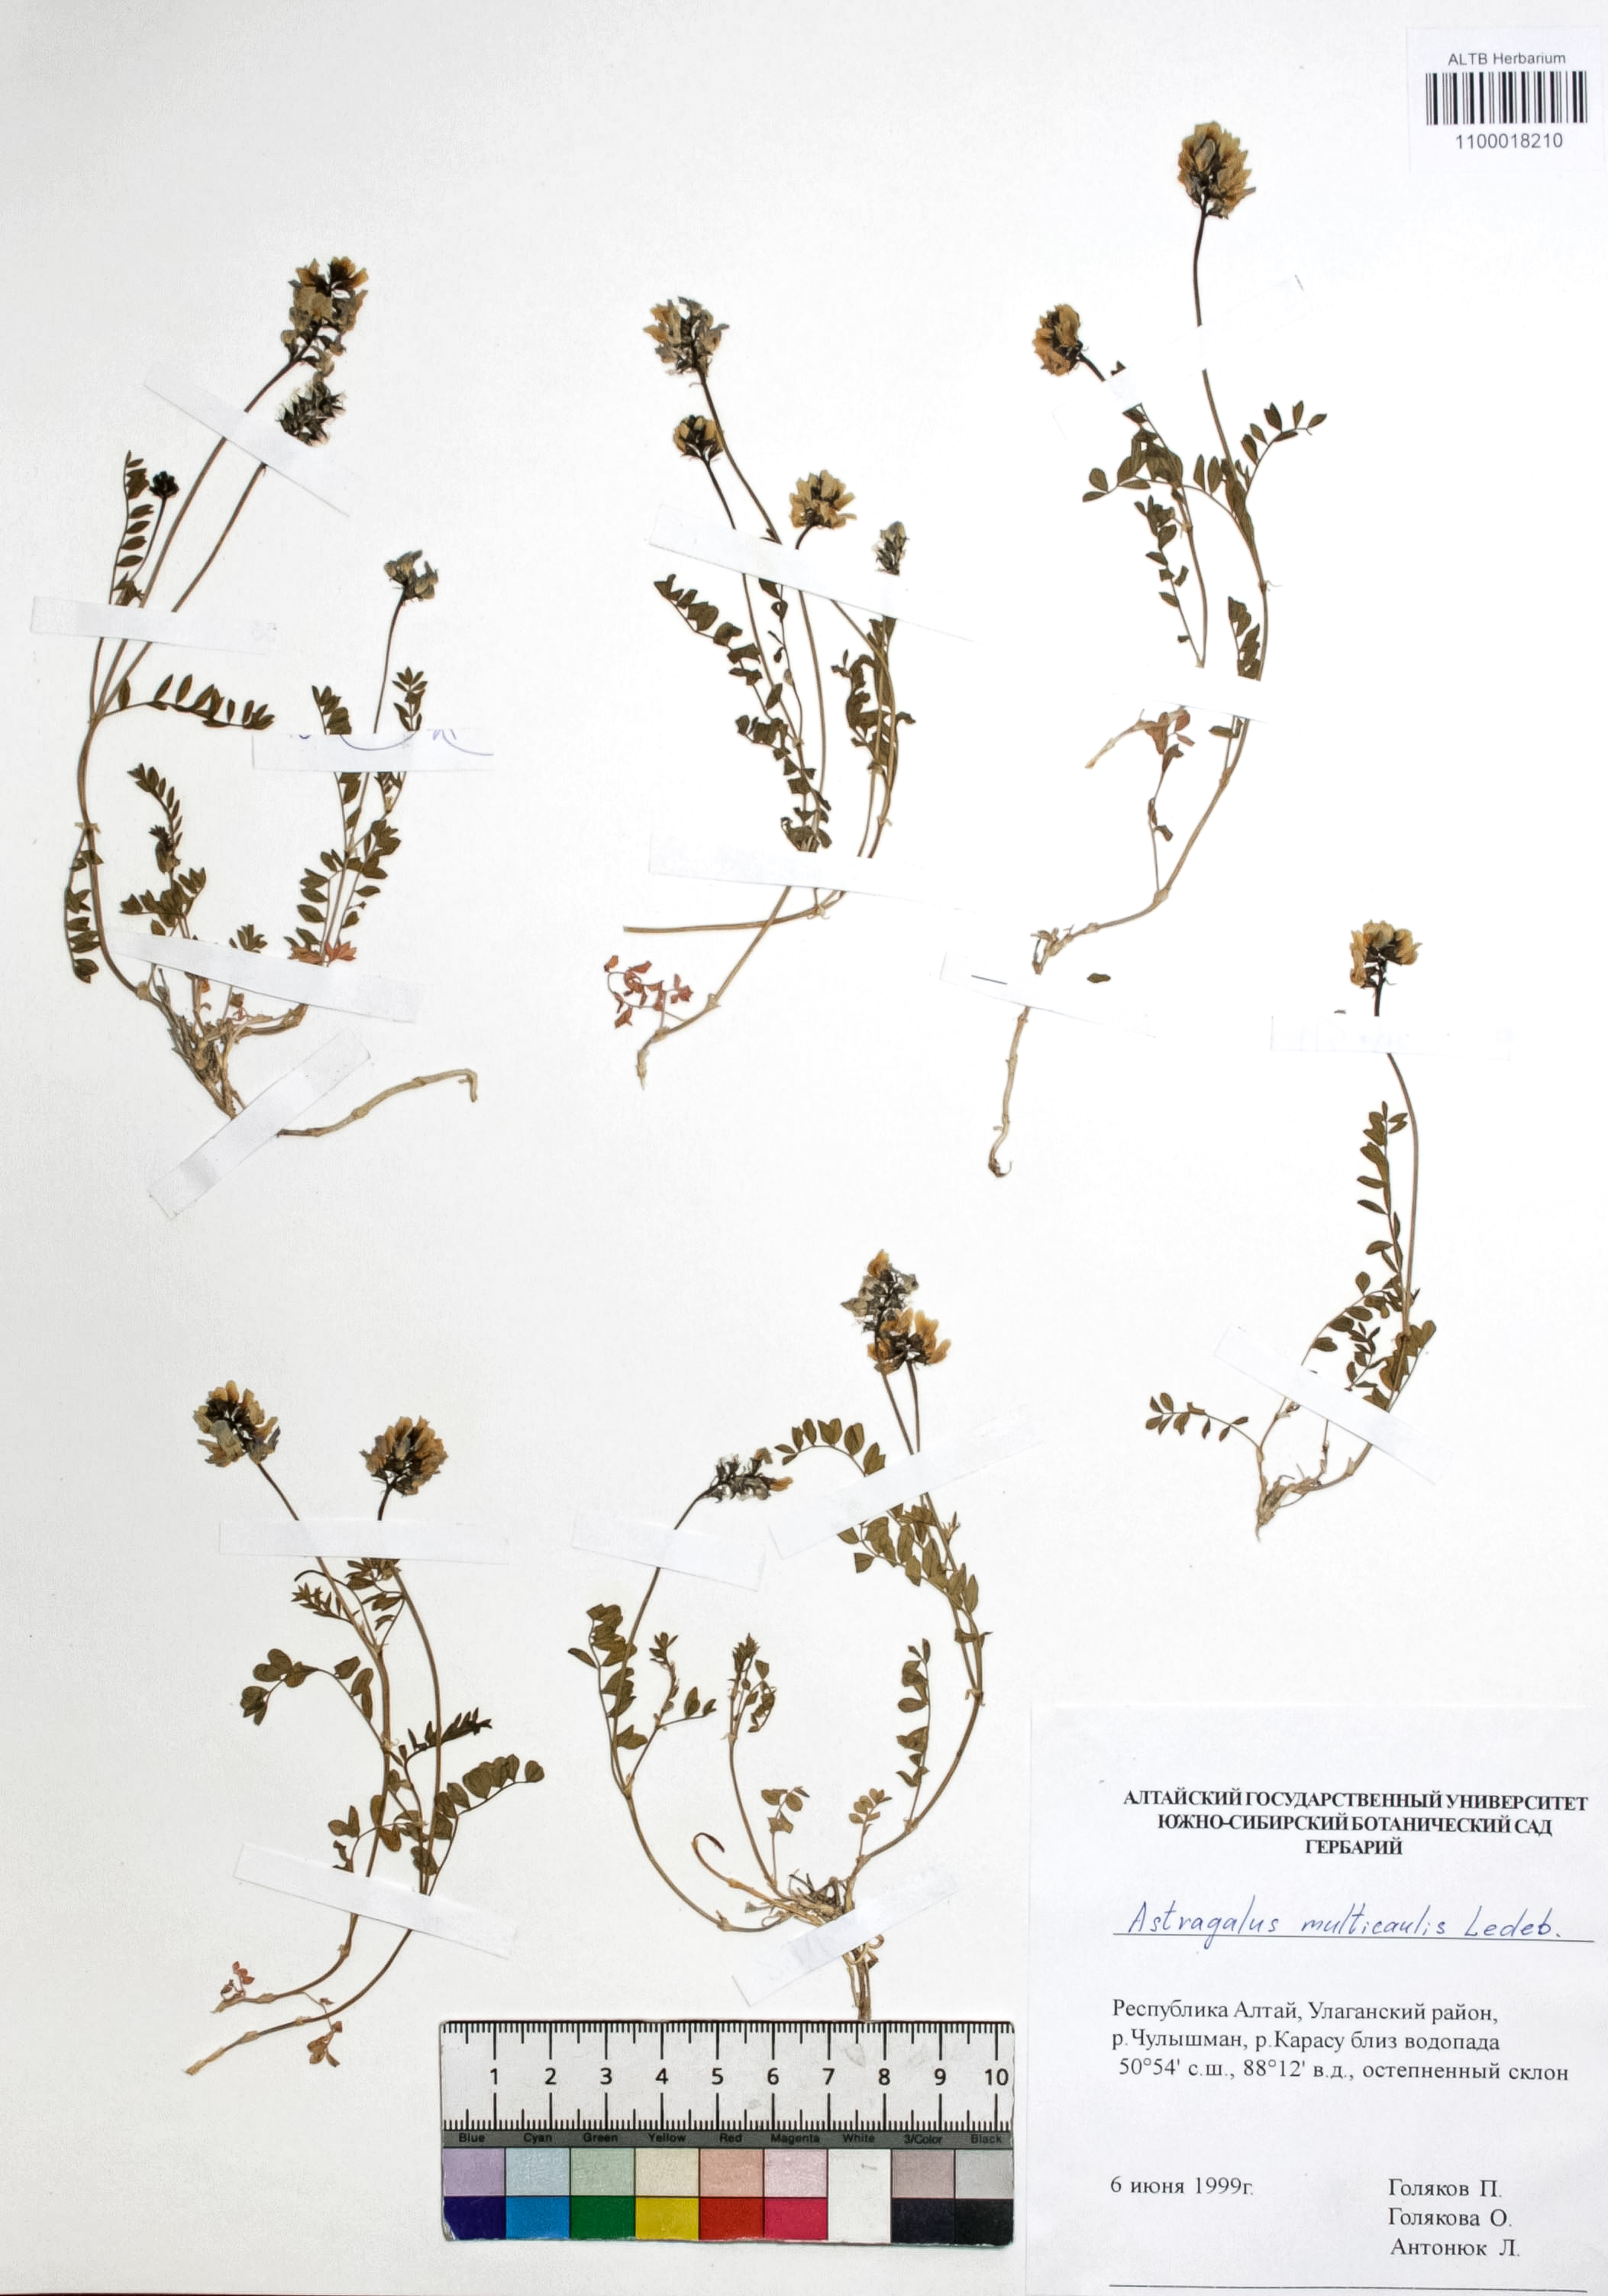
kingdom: Plantae
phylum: Tracheophyta
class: Magnoliopsida
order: Fabales
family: Fabaceae
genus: Astragalus
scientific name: Astragalus leptostachys
